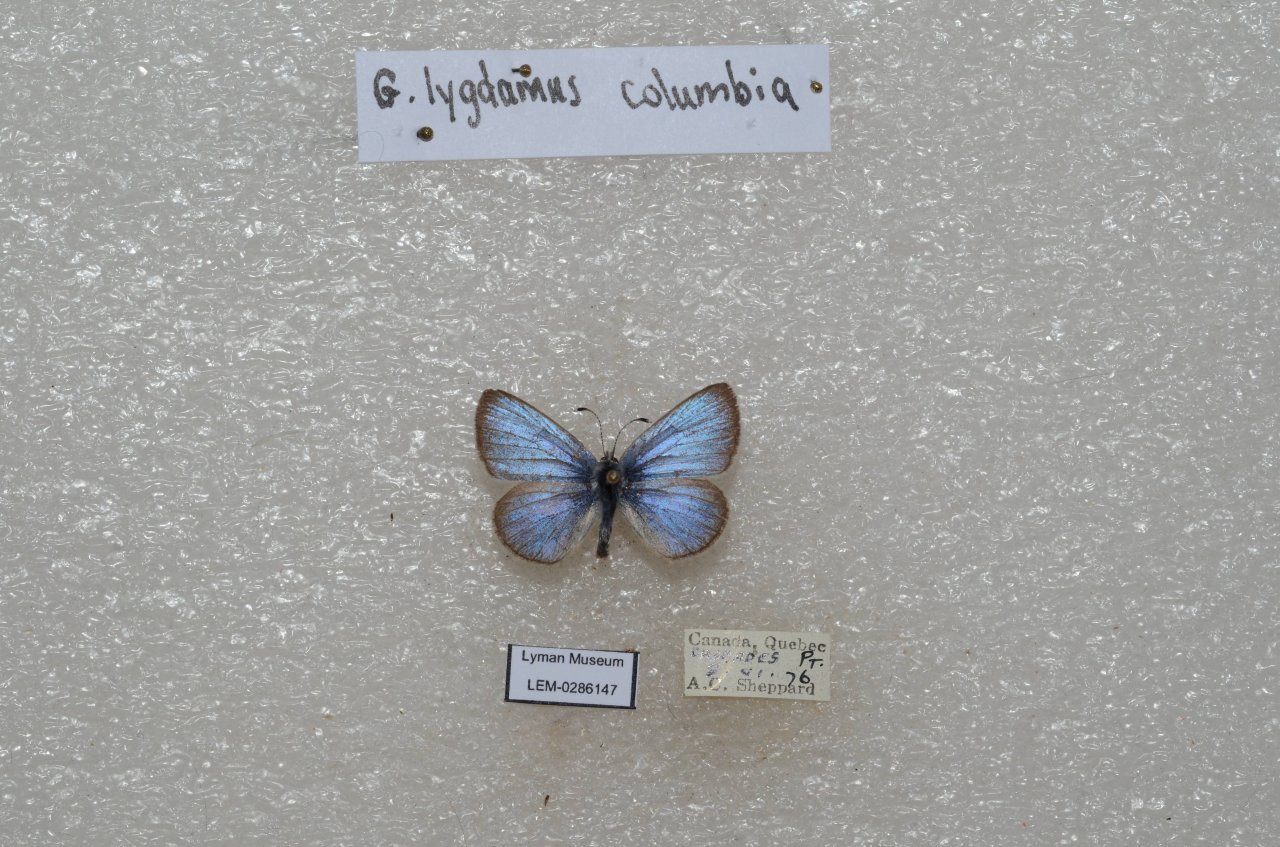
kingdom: Animalia
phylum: Arthropoda
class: Insecta
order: Lepidoptera
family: Lycaenidae
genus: Glaucopsyche
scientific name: Glaucopsyche lygdamus
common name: Silvery Blue
